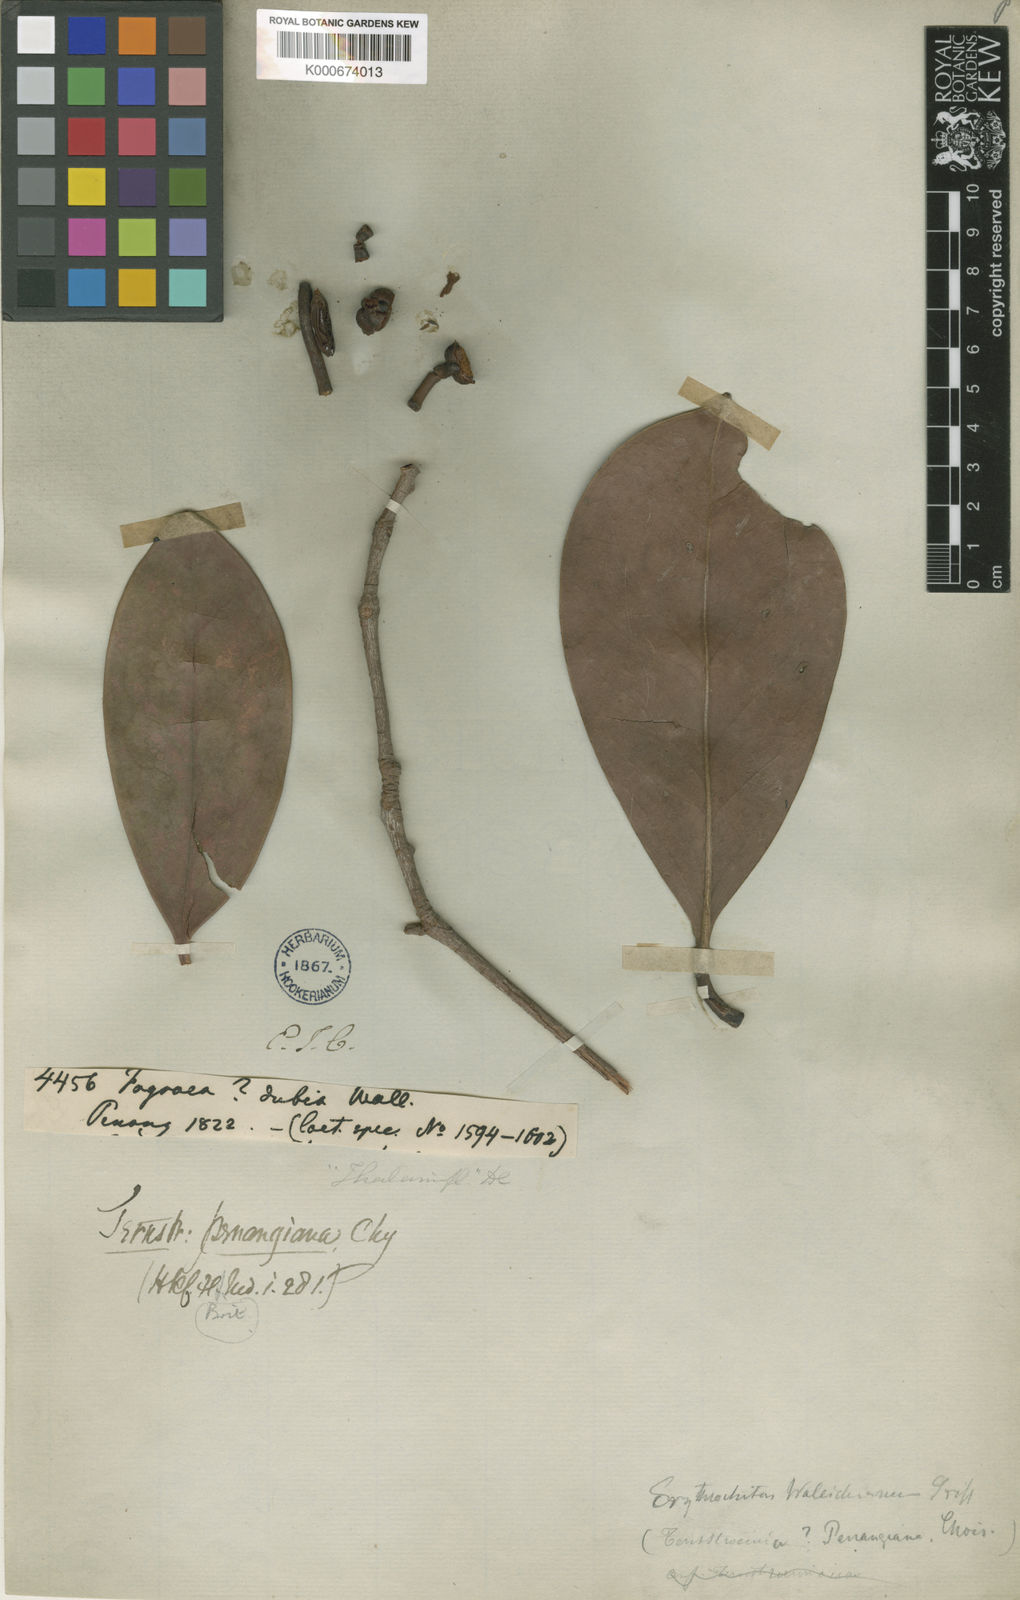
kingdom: Plantae
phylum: Tracheophyta
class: Magnoliopsida
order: Ericales
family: Pentaphylacaceae
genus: Ternstroemia
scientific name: Ternstroemia penangiana
